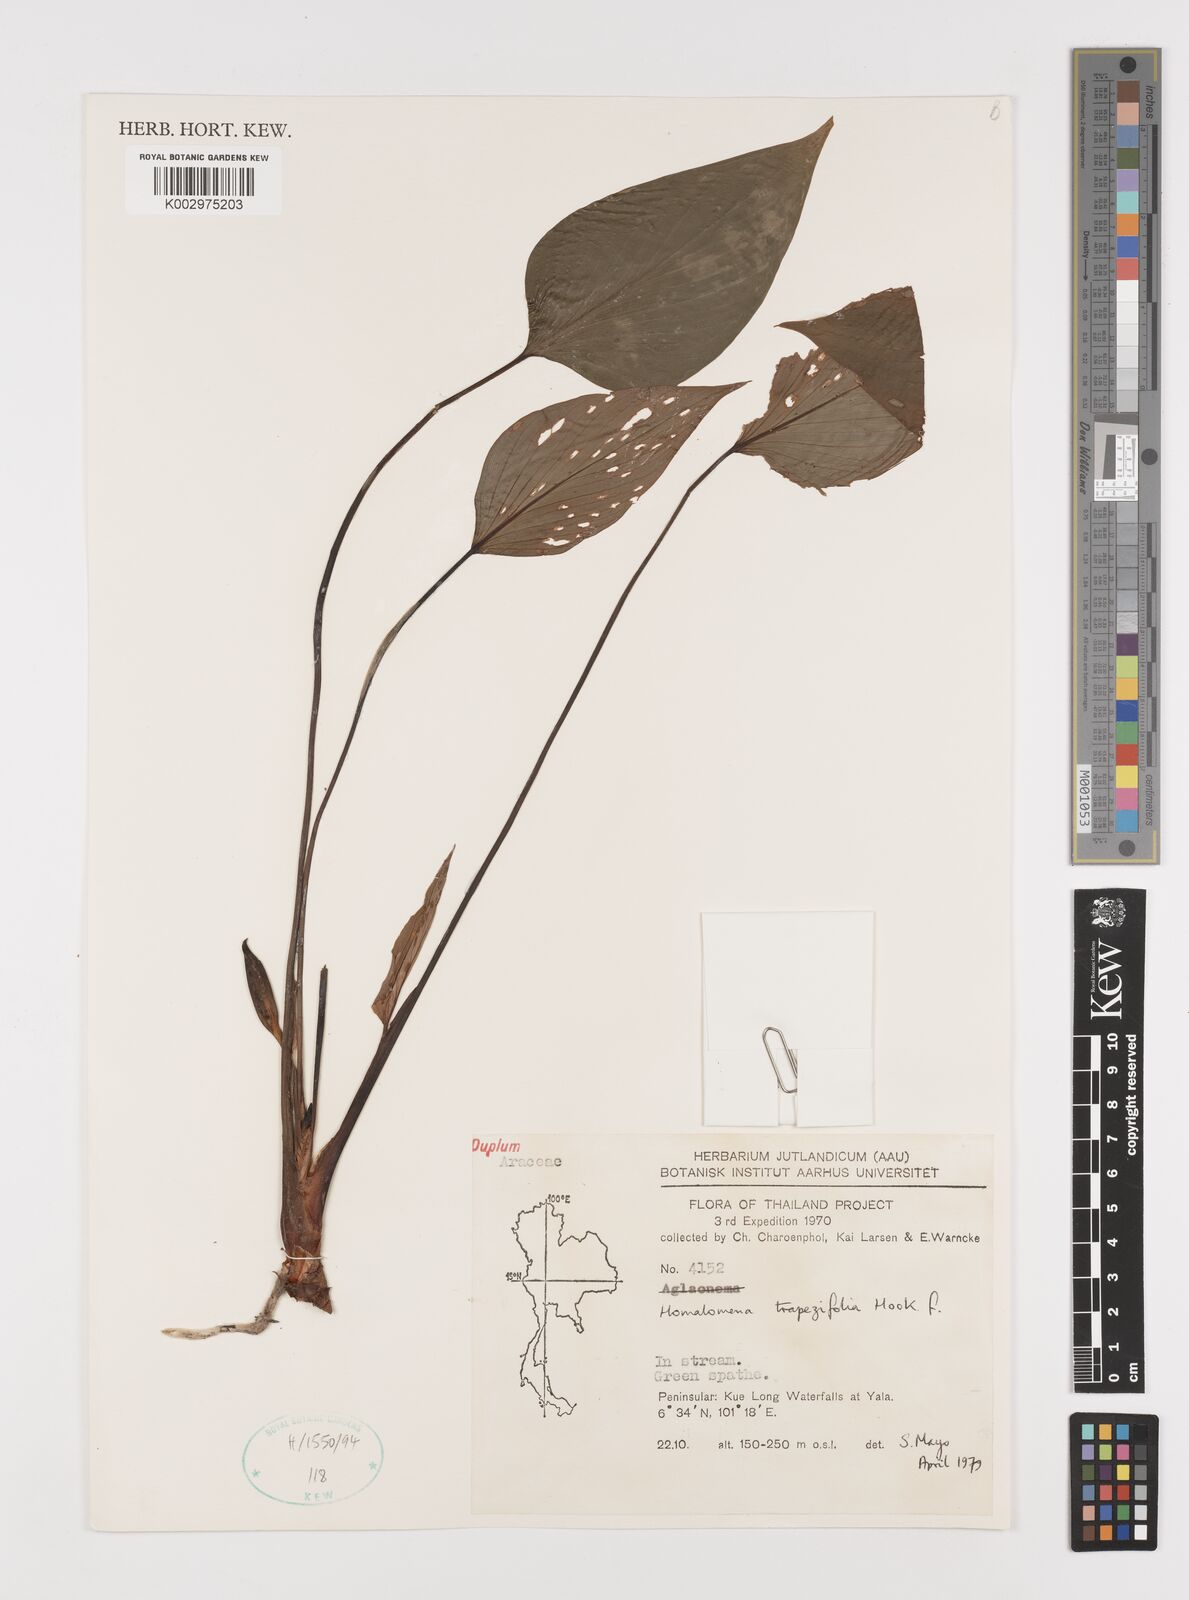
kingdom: Plantae
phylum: Tracheophyta
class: Liliopsida
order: Alismatales
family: Araceae
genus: Homalomena
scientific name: Homalomena griffithii
